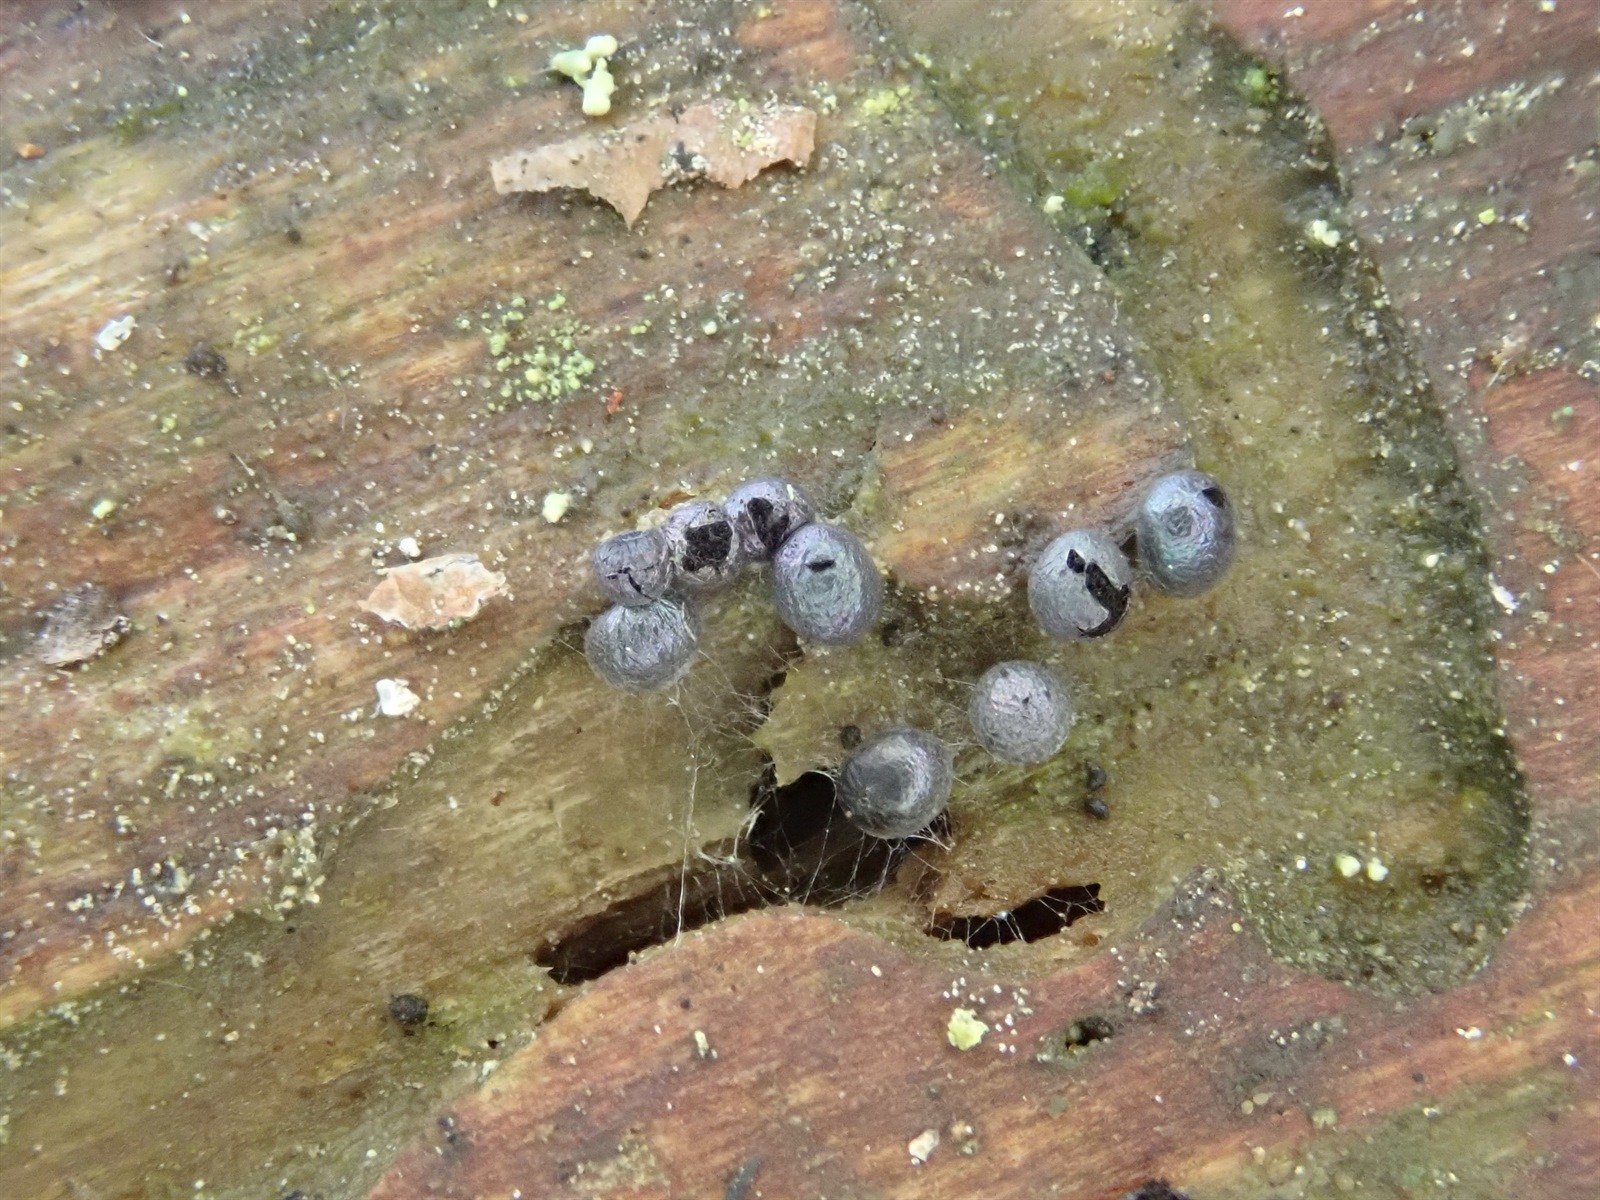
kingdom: Protozoa
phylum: Mycetozoa
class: Myxomycetes
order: Stemonitidales
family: Stemonitidaceae
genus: Diacheopsis
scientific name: Diacheopsis nannengae
